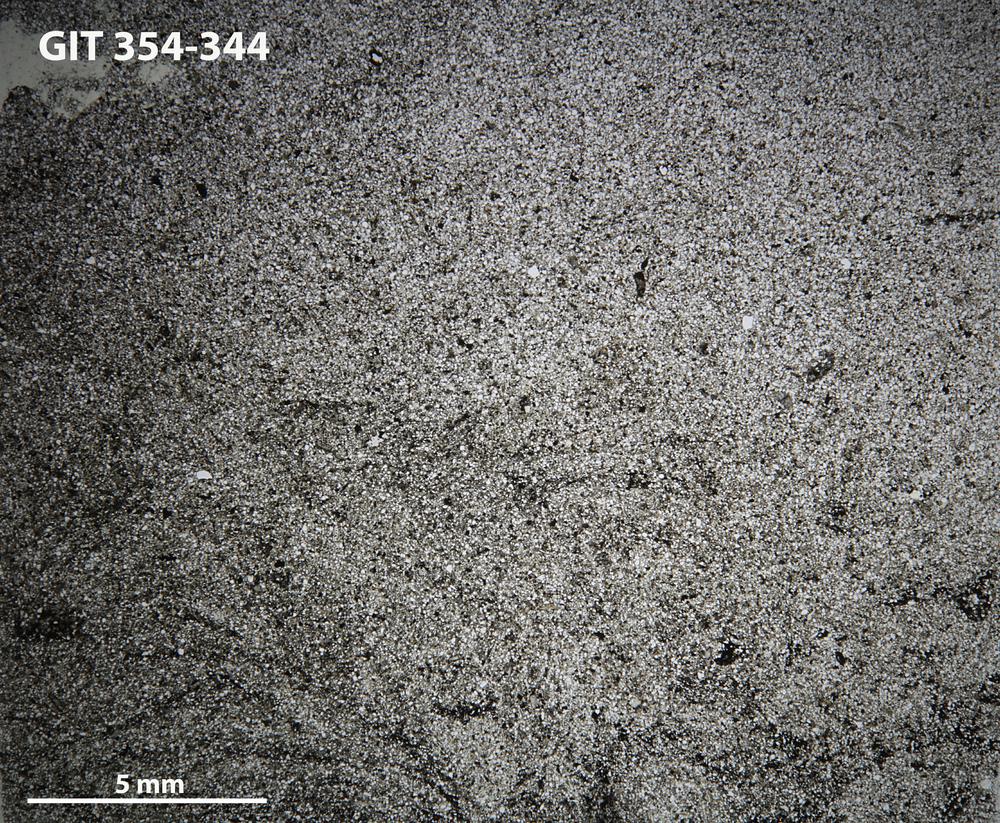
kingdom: Animalia
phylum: Porifera
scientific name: Porifera
